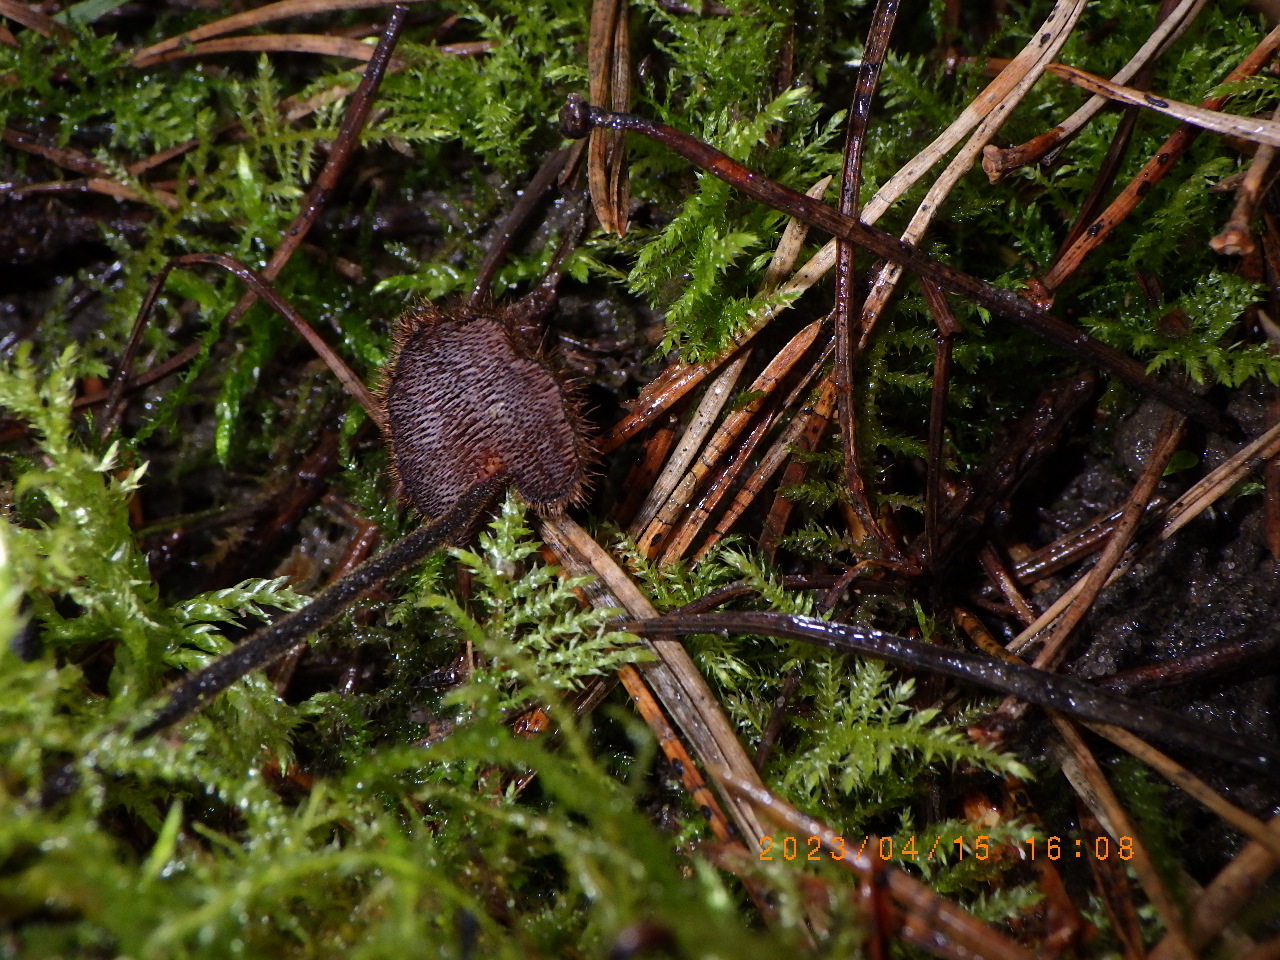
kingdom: Fungi
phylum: Basidiomycota
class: Agaricomycetes
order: Russulales
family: Auriscalpiaceae
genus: Auriscalpium
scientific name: Auriscalpium vulgare
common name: koglepigsvamp
